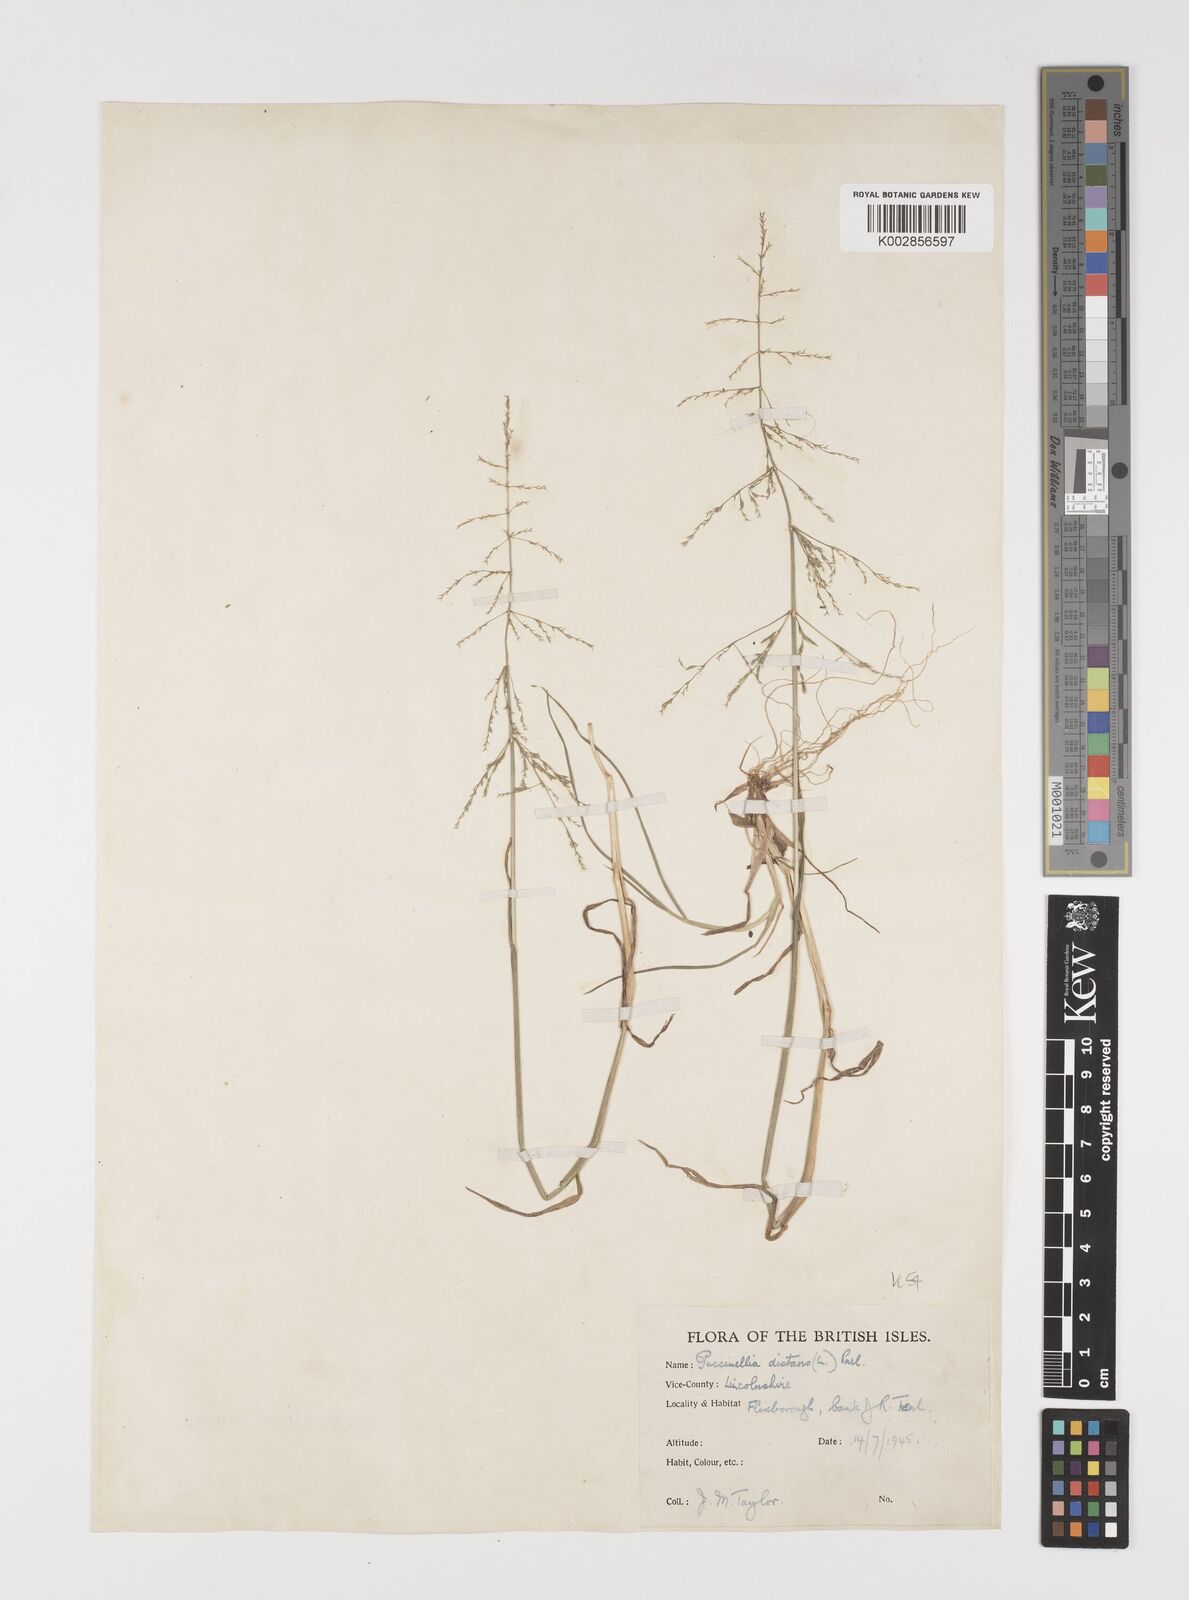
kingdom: Plantae
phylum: Tracheophyta
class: Liliopsida
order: Poales
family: Poaceae
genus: Puccinellia
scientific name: Puccinellia distans
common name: Weeping alkaligrass
